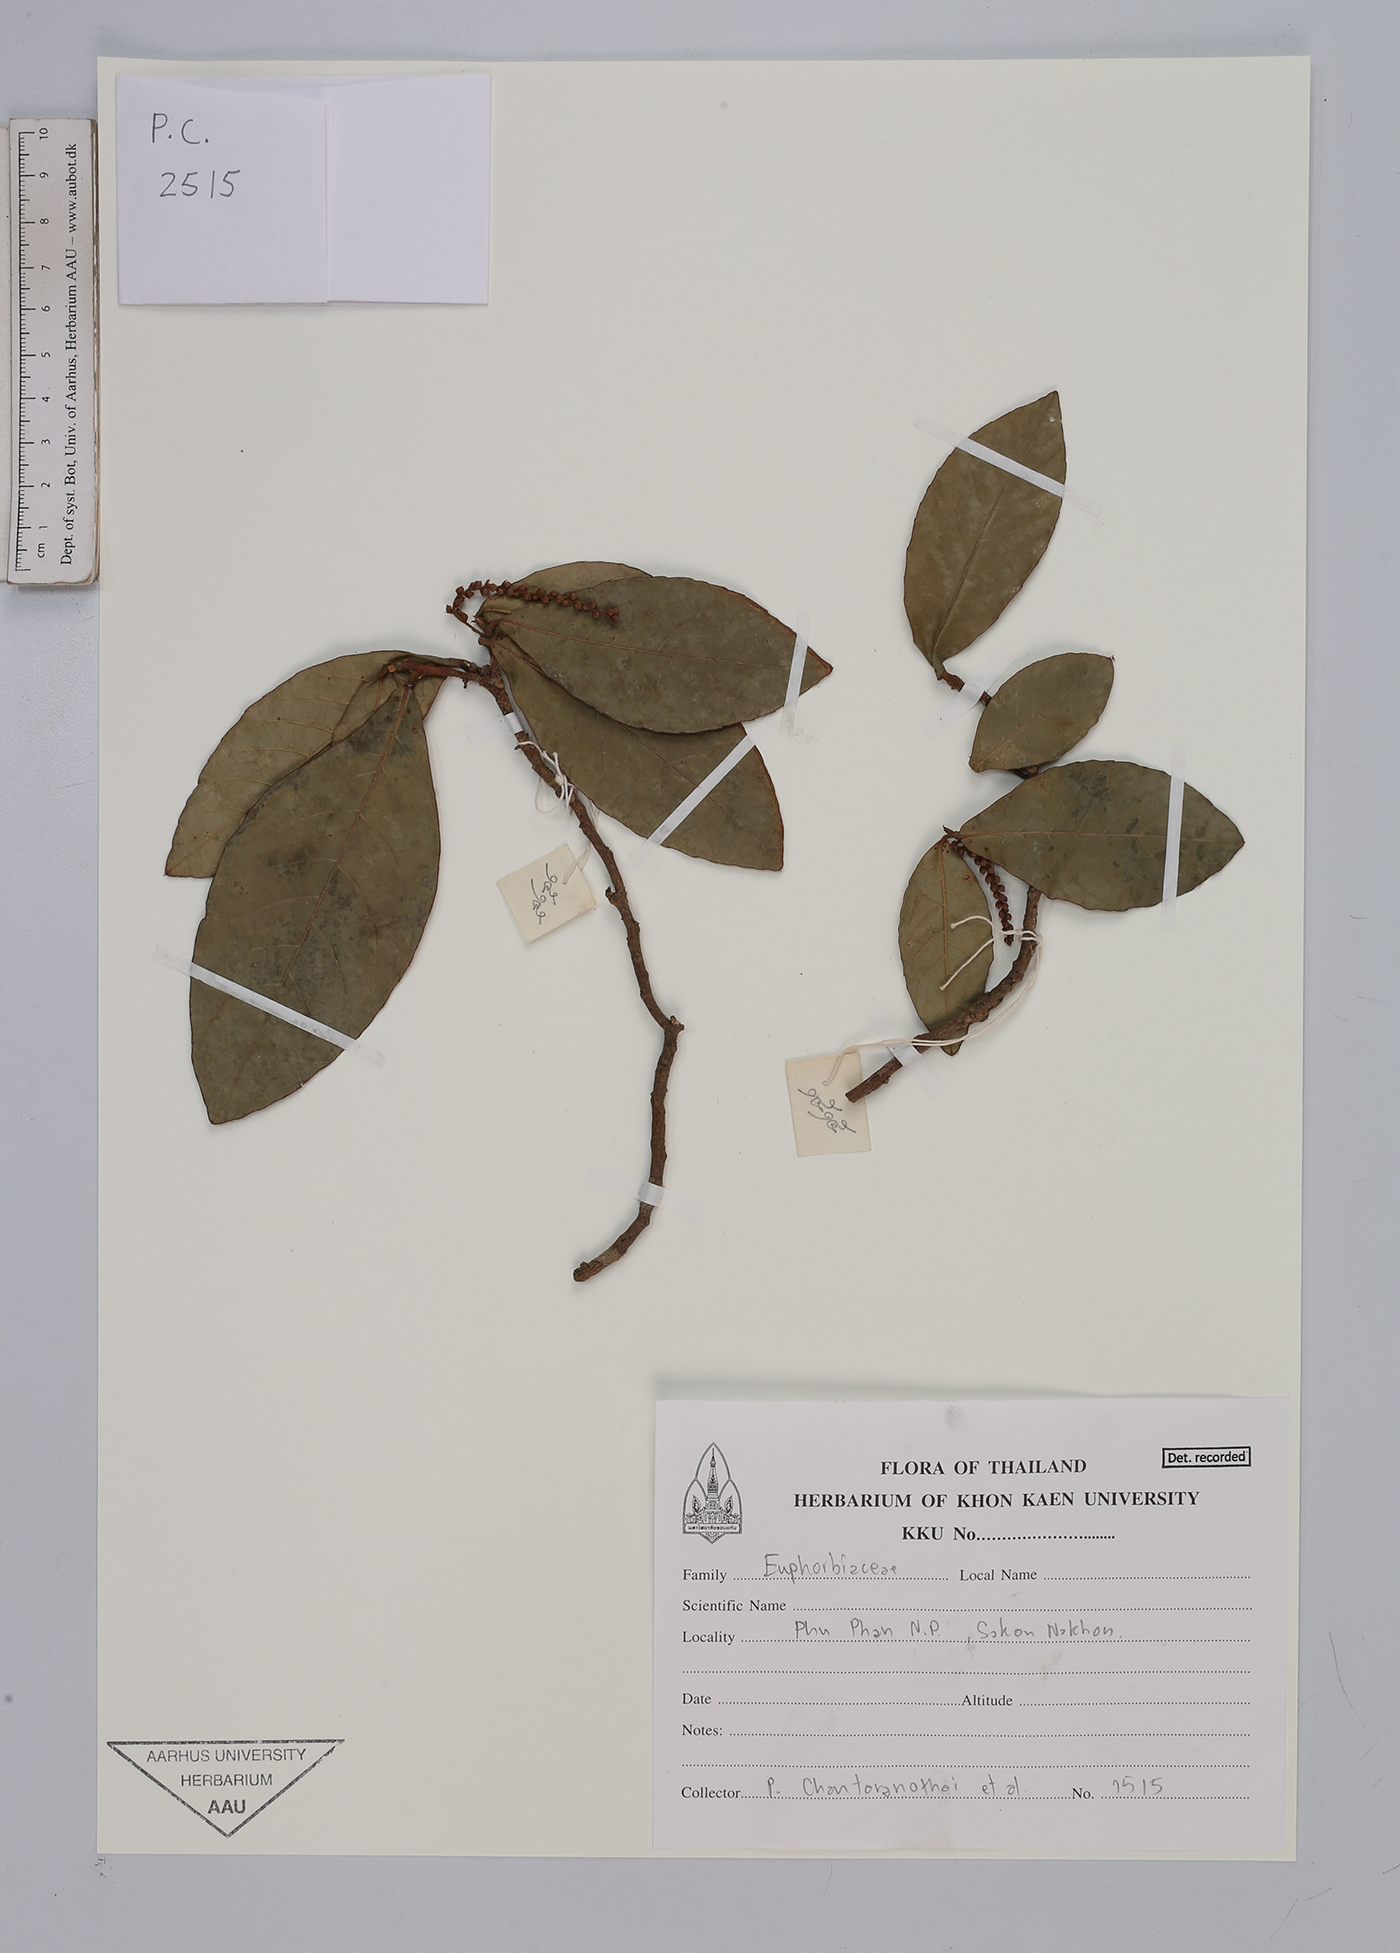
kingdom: Plantae
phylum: Tracheophyta
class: Magnoliopsida
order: Malpighiales
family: Euphorbiaceae
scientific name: Euphorbiaceae
